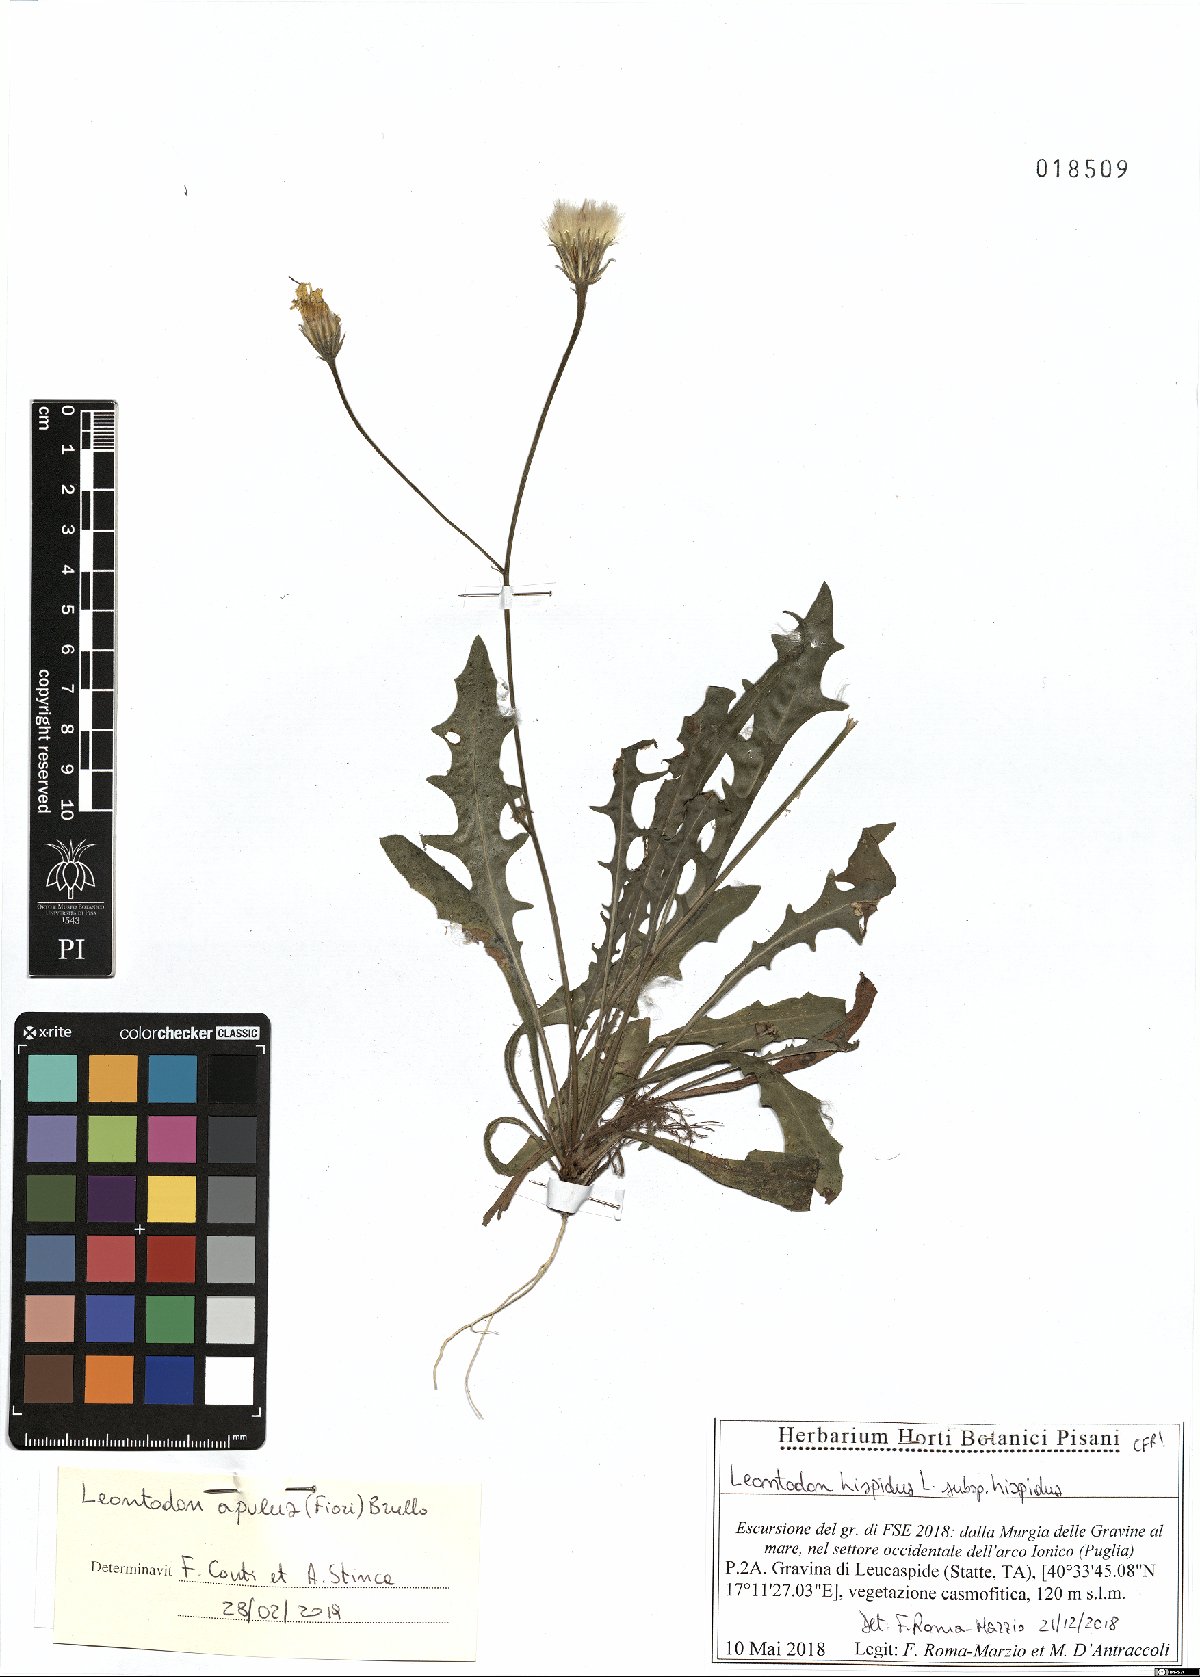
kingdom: Plantae
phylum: Tracheophyta
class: Magnoliopsida
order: Asterales
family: Asteraceae
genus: Leontodon
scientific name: Leontodon apulus
